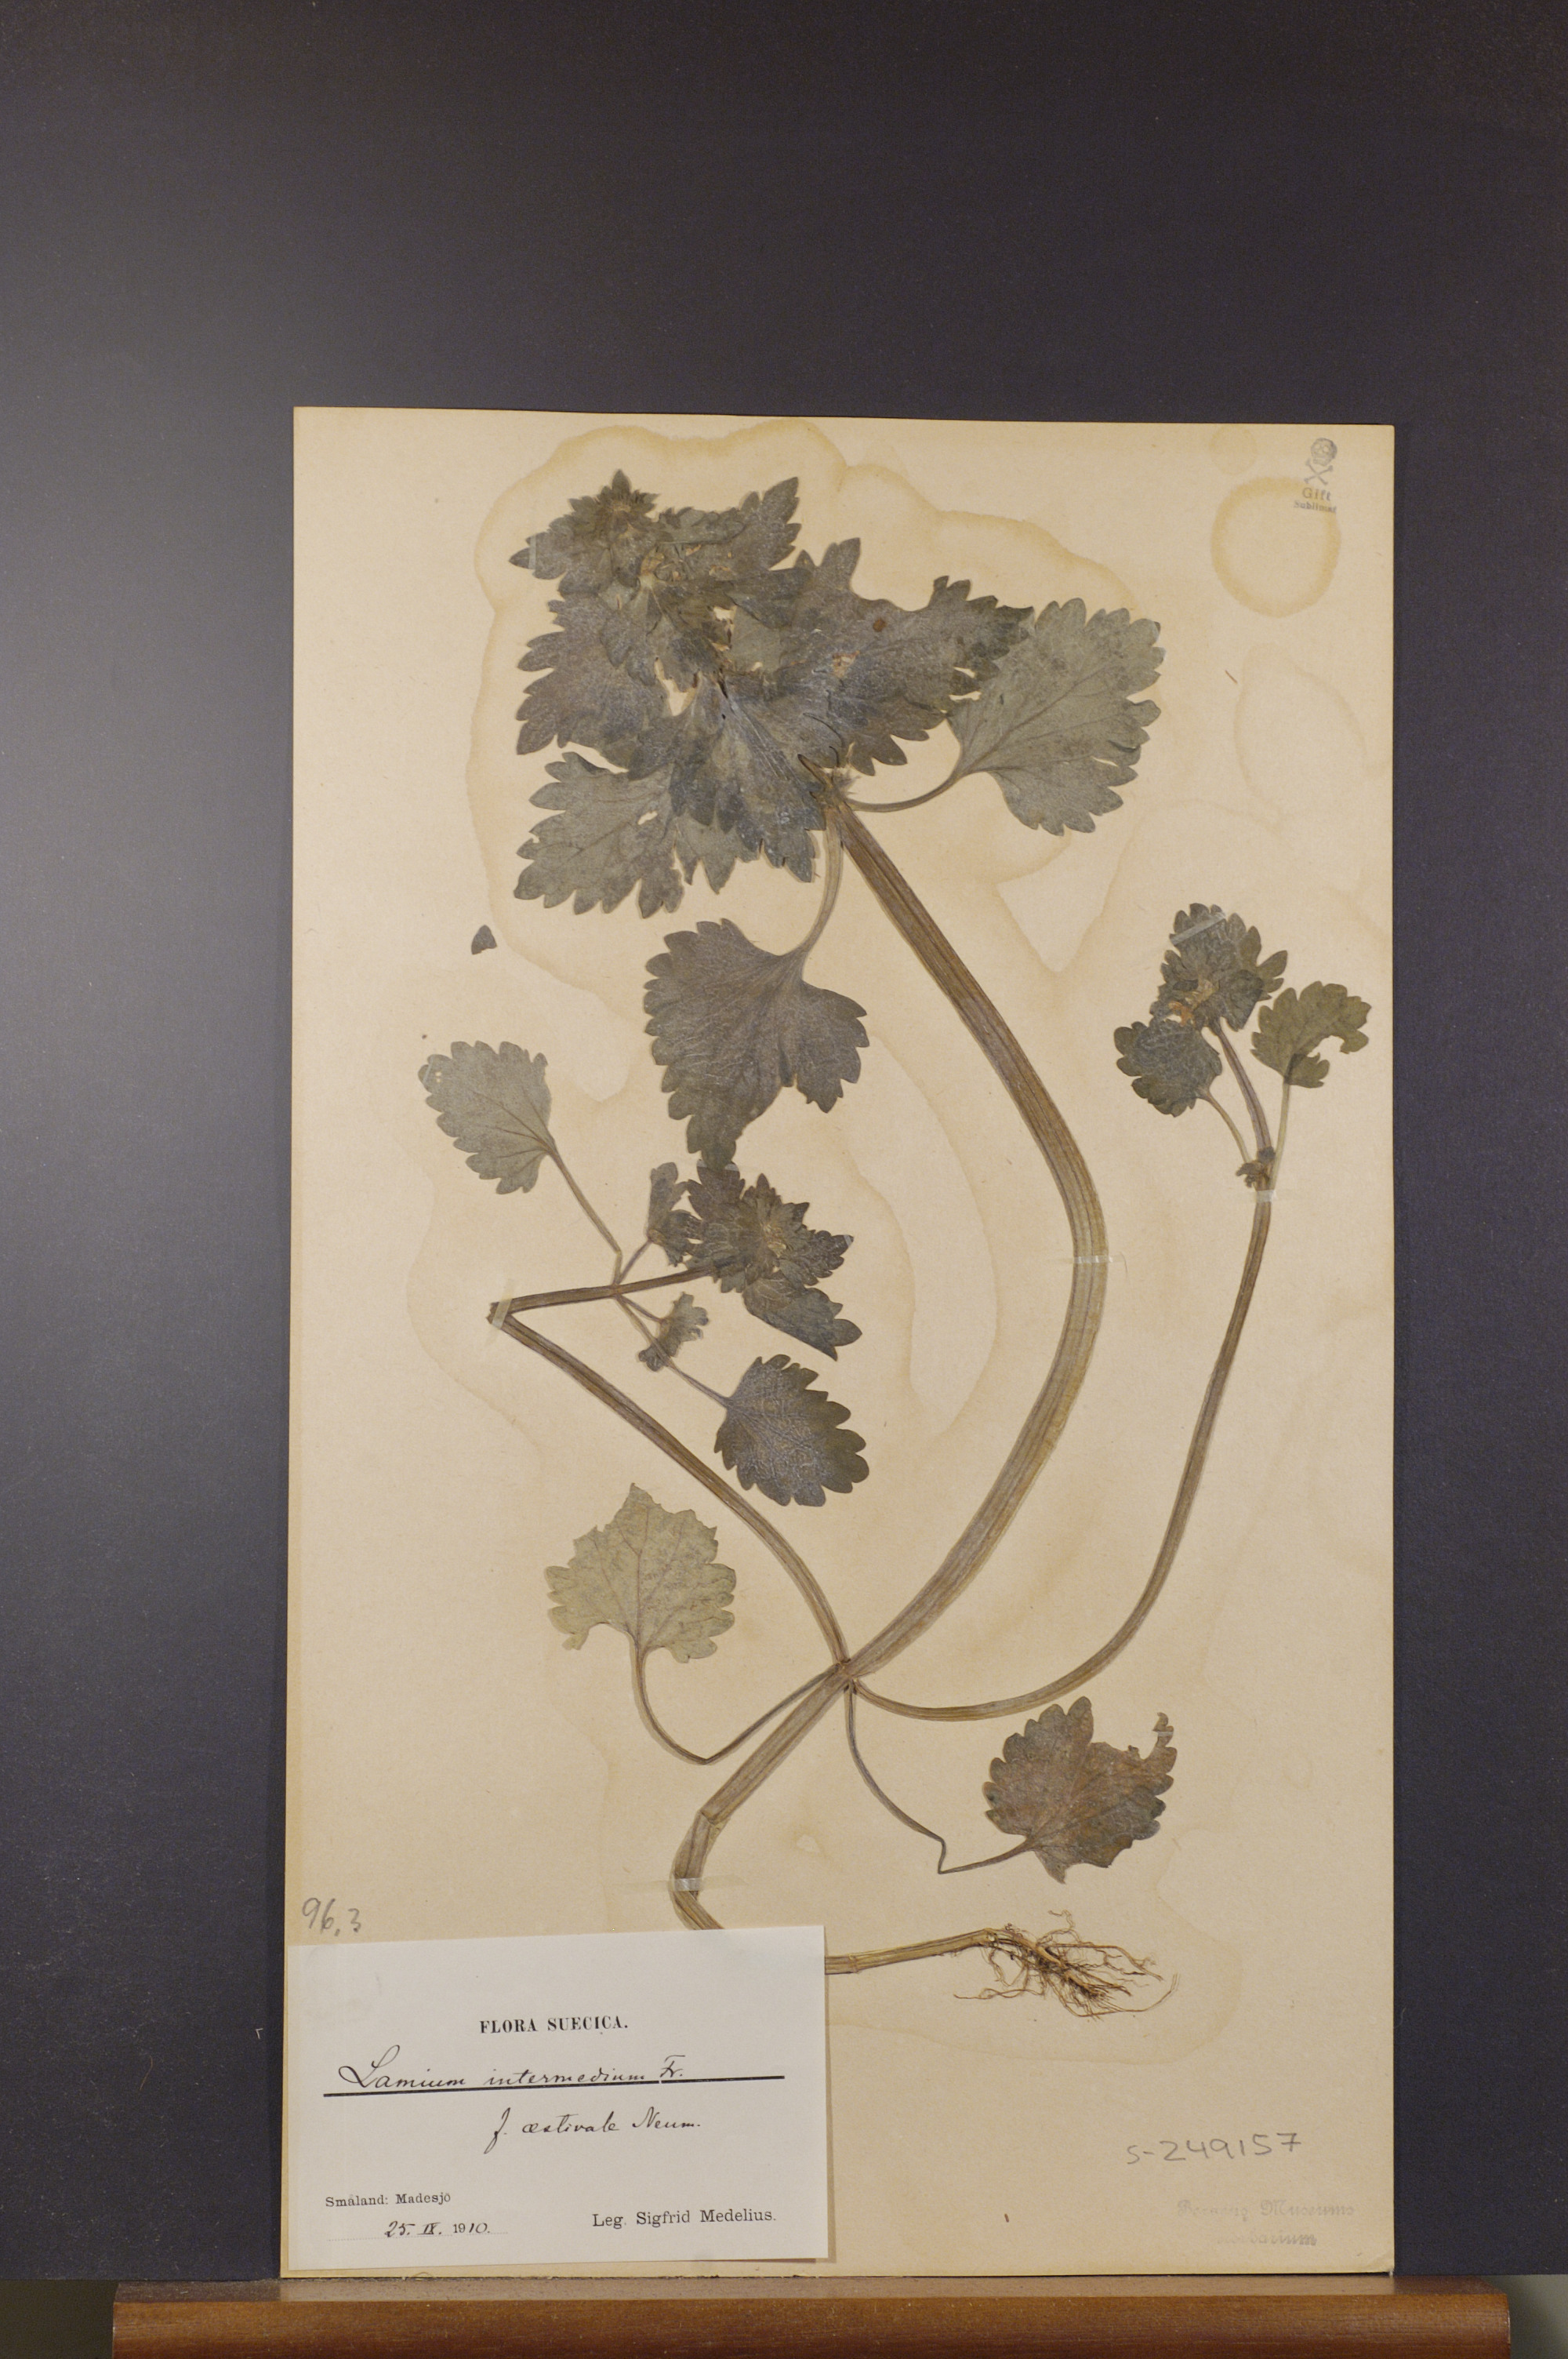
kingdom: Plantae
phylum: Tracheophyta
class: Magnoliopsida
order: Lamiales
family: Lamiaceae
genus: Lamium
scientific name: Lamium confertum
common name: Northern dead-nettle
